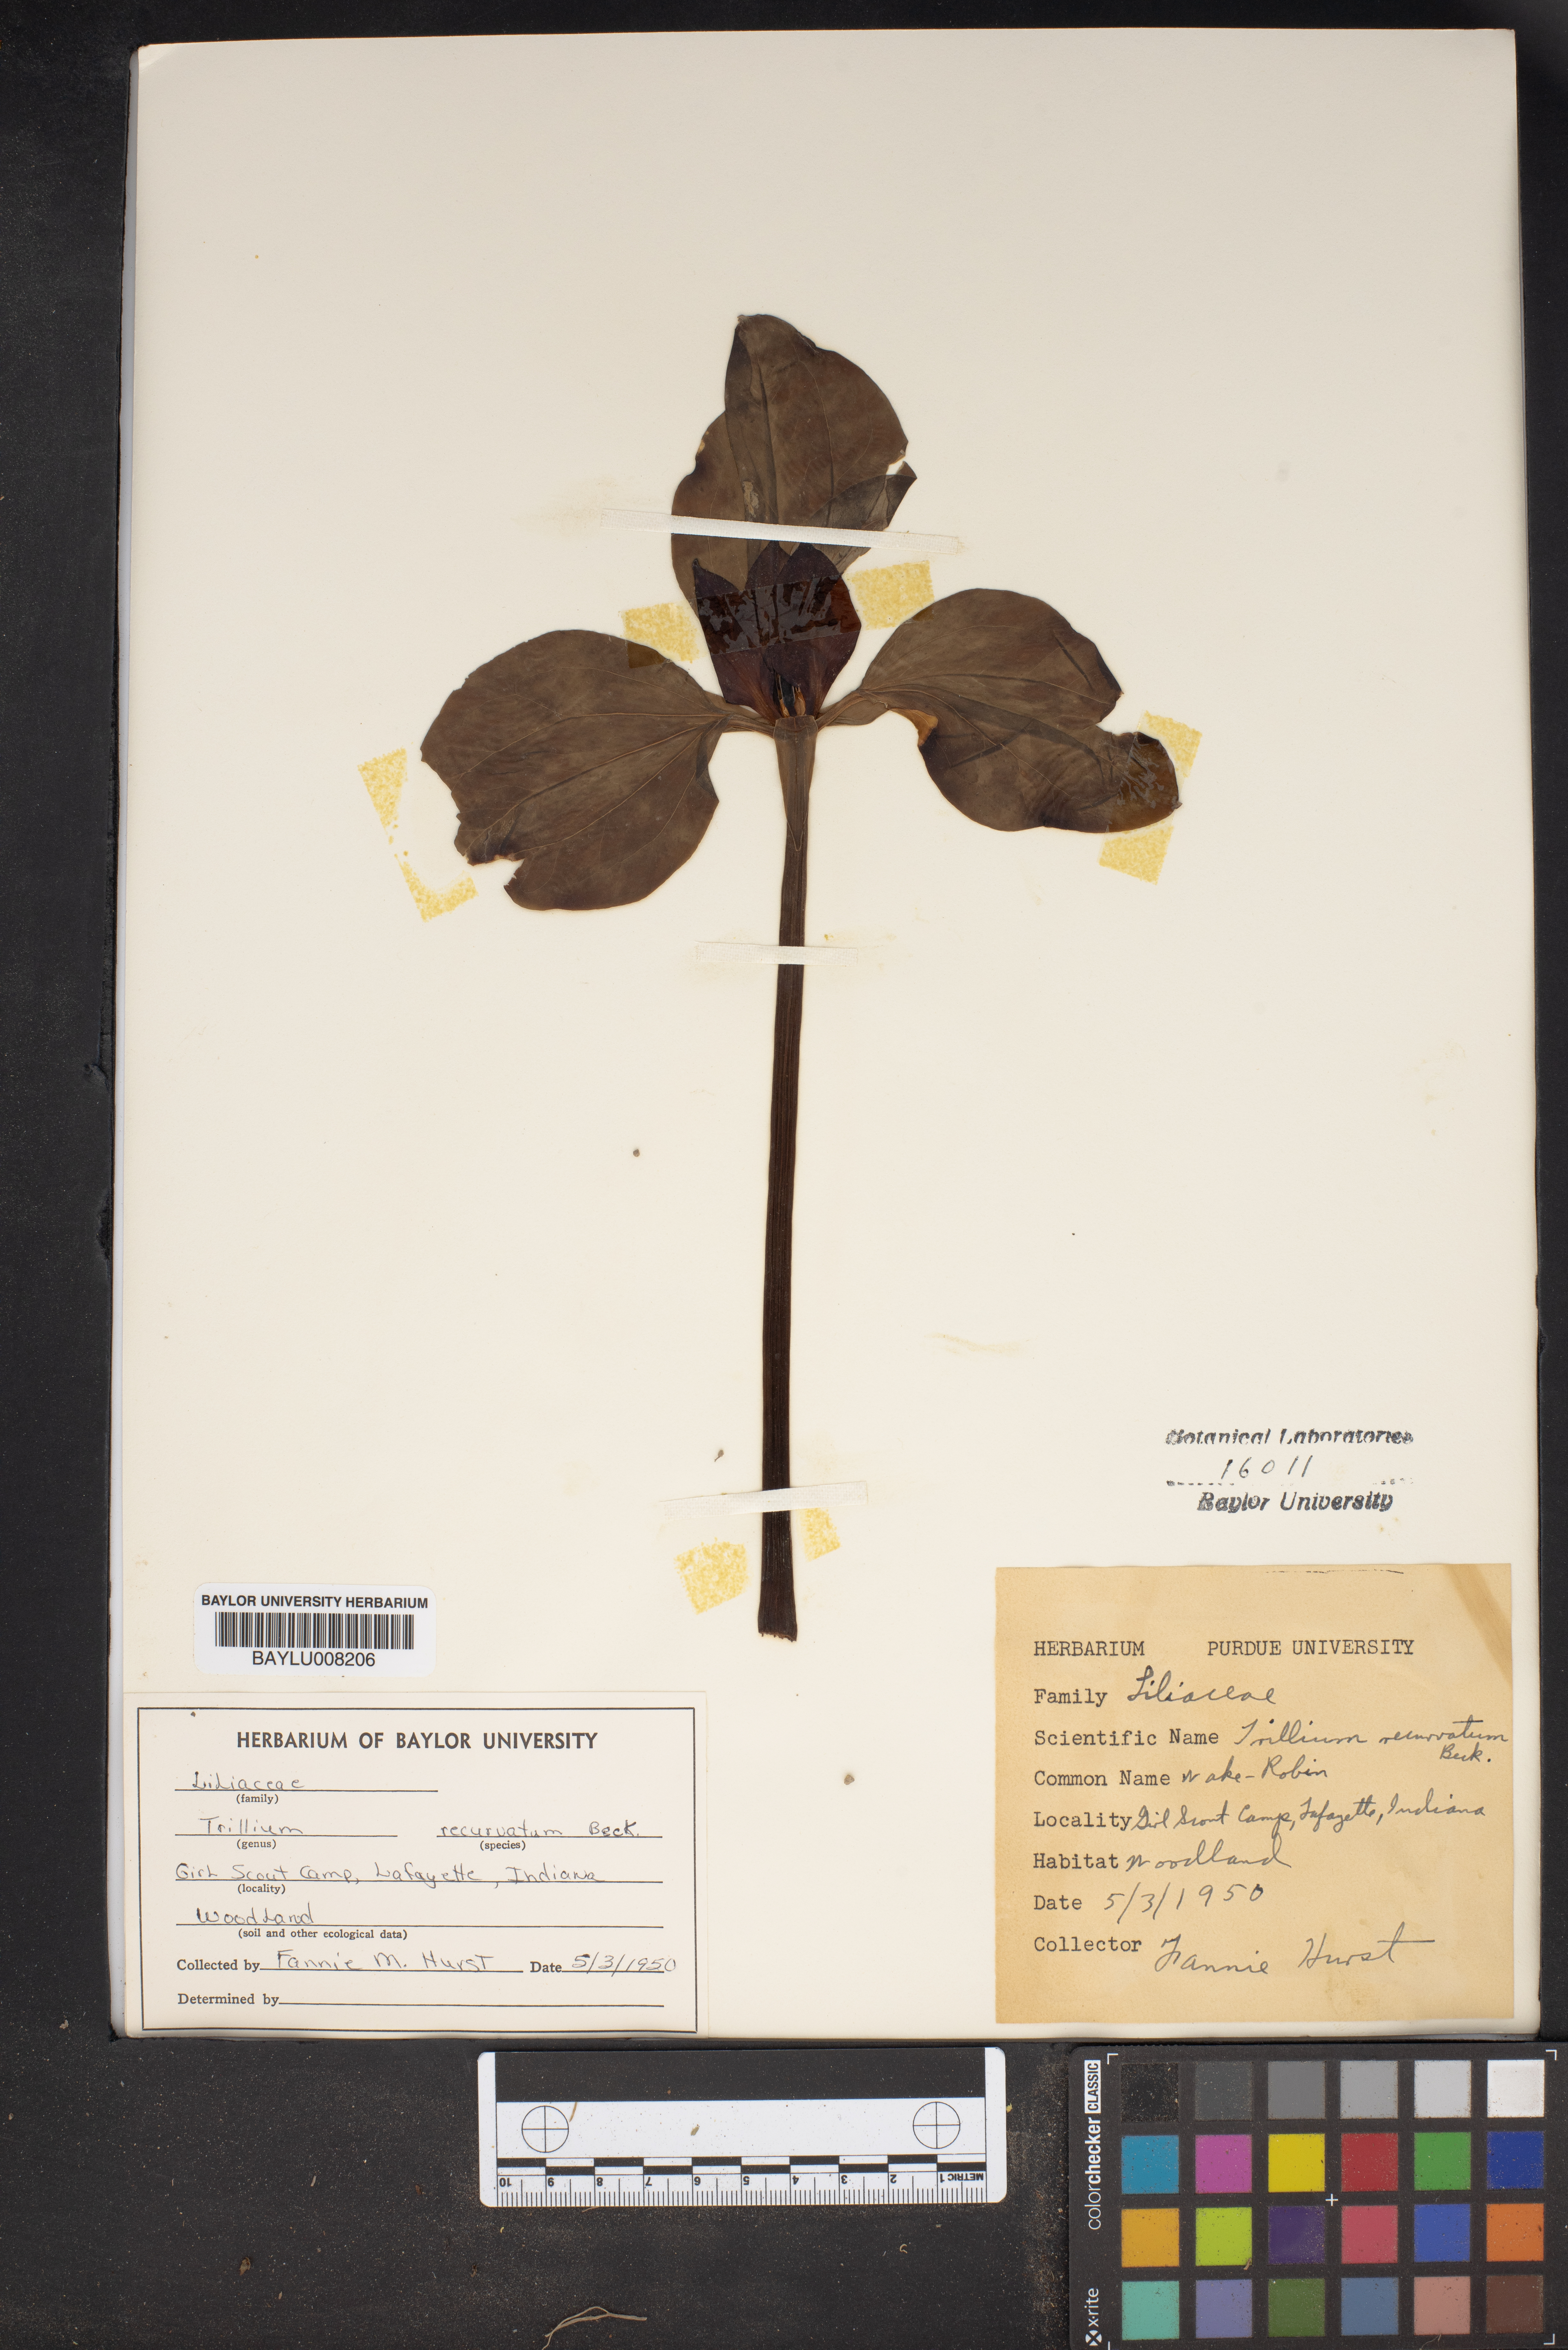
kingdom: Plantae
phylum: Tracheophyta
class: Liliopsida
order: Liliales
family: Melanthiaceae
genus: Trillium
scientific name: Trillium recurvatum
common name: Bloody butcher
